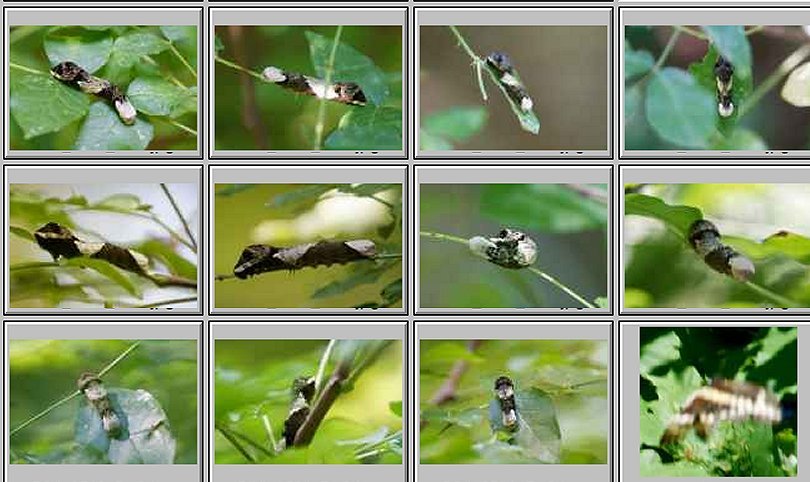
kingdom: Animalia
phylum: Arthropoda
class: Insecta
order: Lepidoptera
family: Papilionidae
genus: Papilio
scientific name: Papilio cresphontes
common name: Eastern Giant Swallowtail
